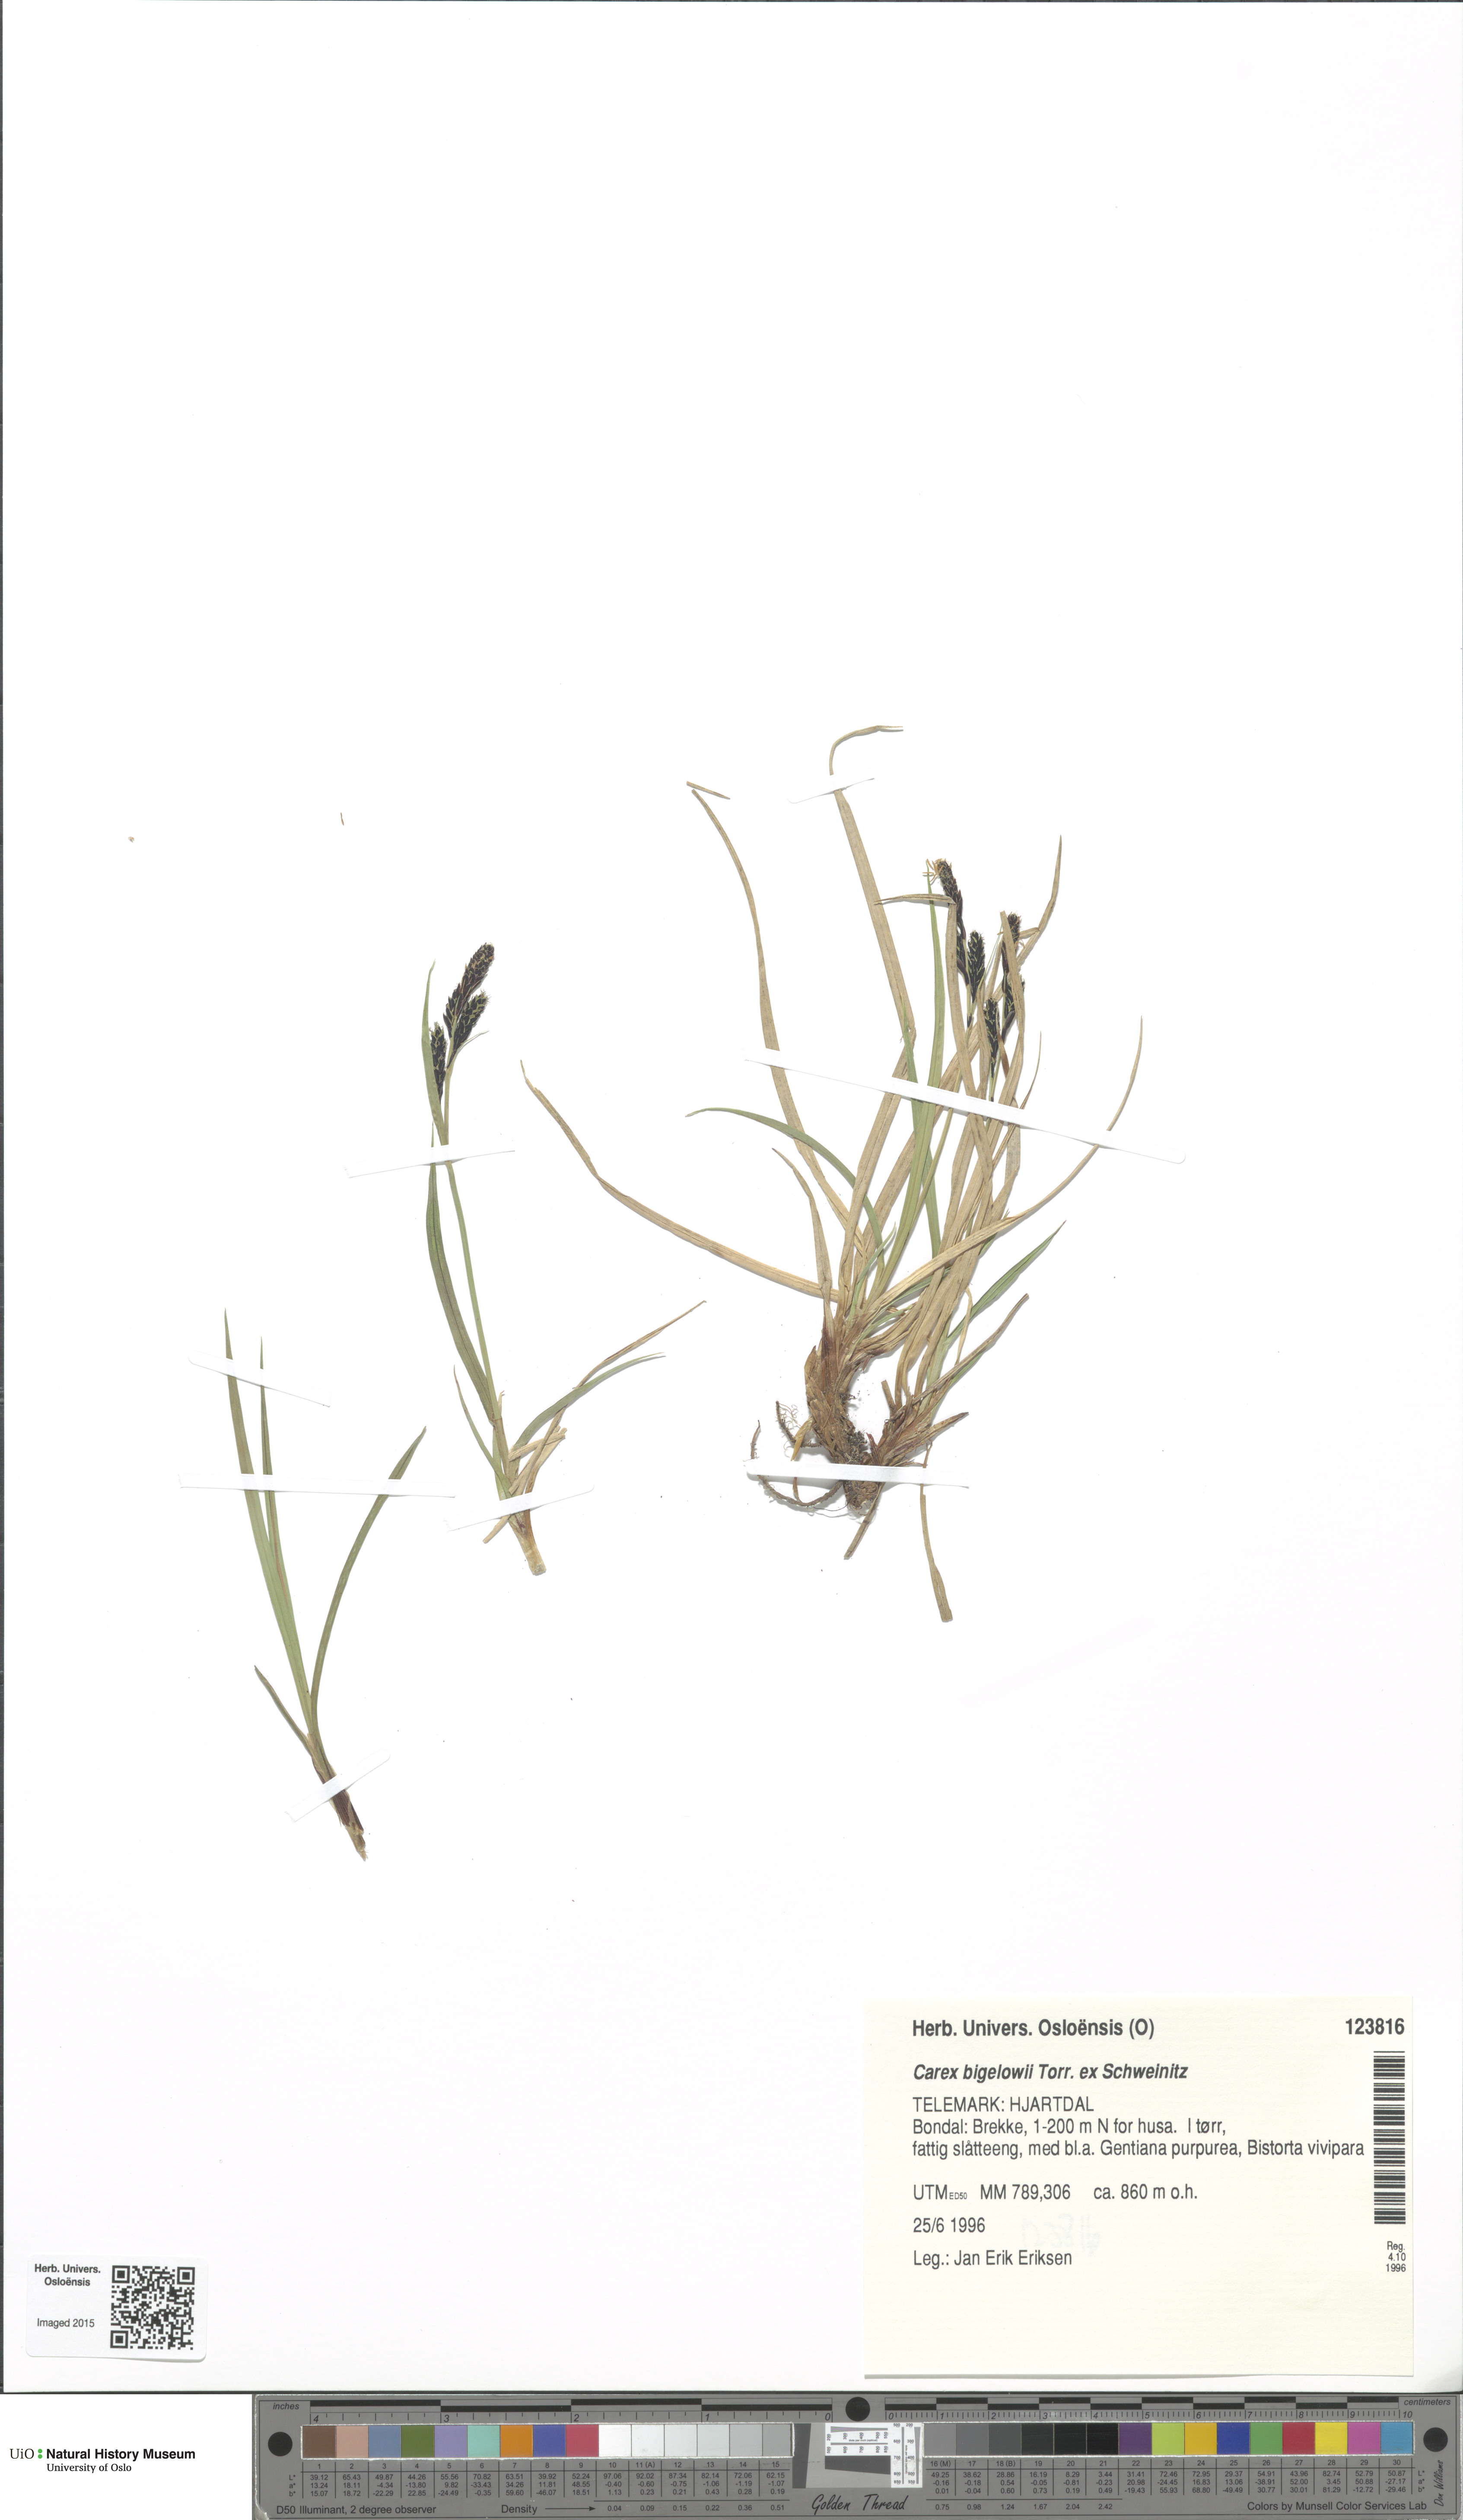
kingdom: Plantae
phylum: Tracheophyta
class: Liliopsida
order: Poales
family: Cyperaceae
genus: Carex
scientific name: Carex bigelowii
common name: Stiff sedge
